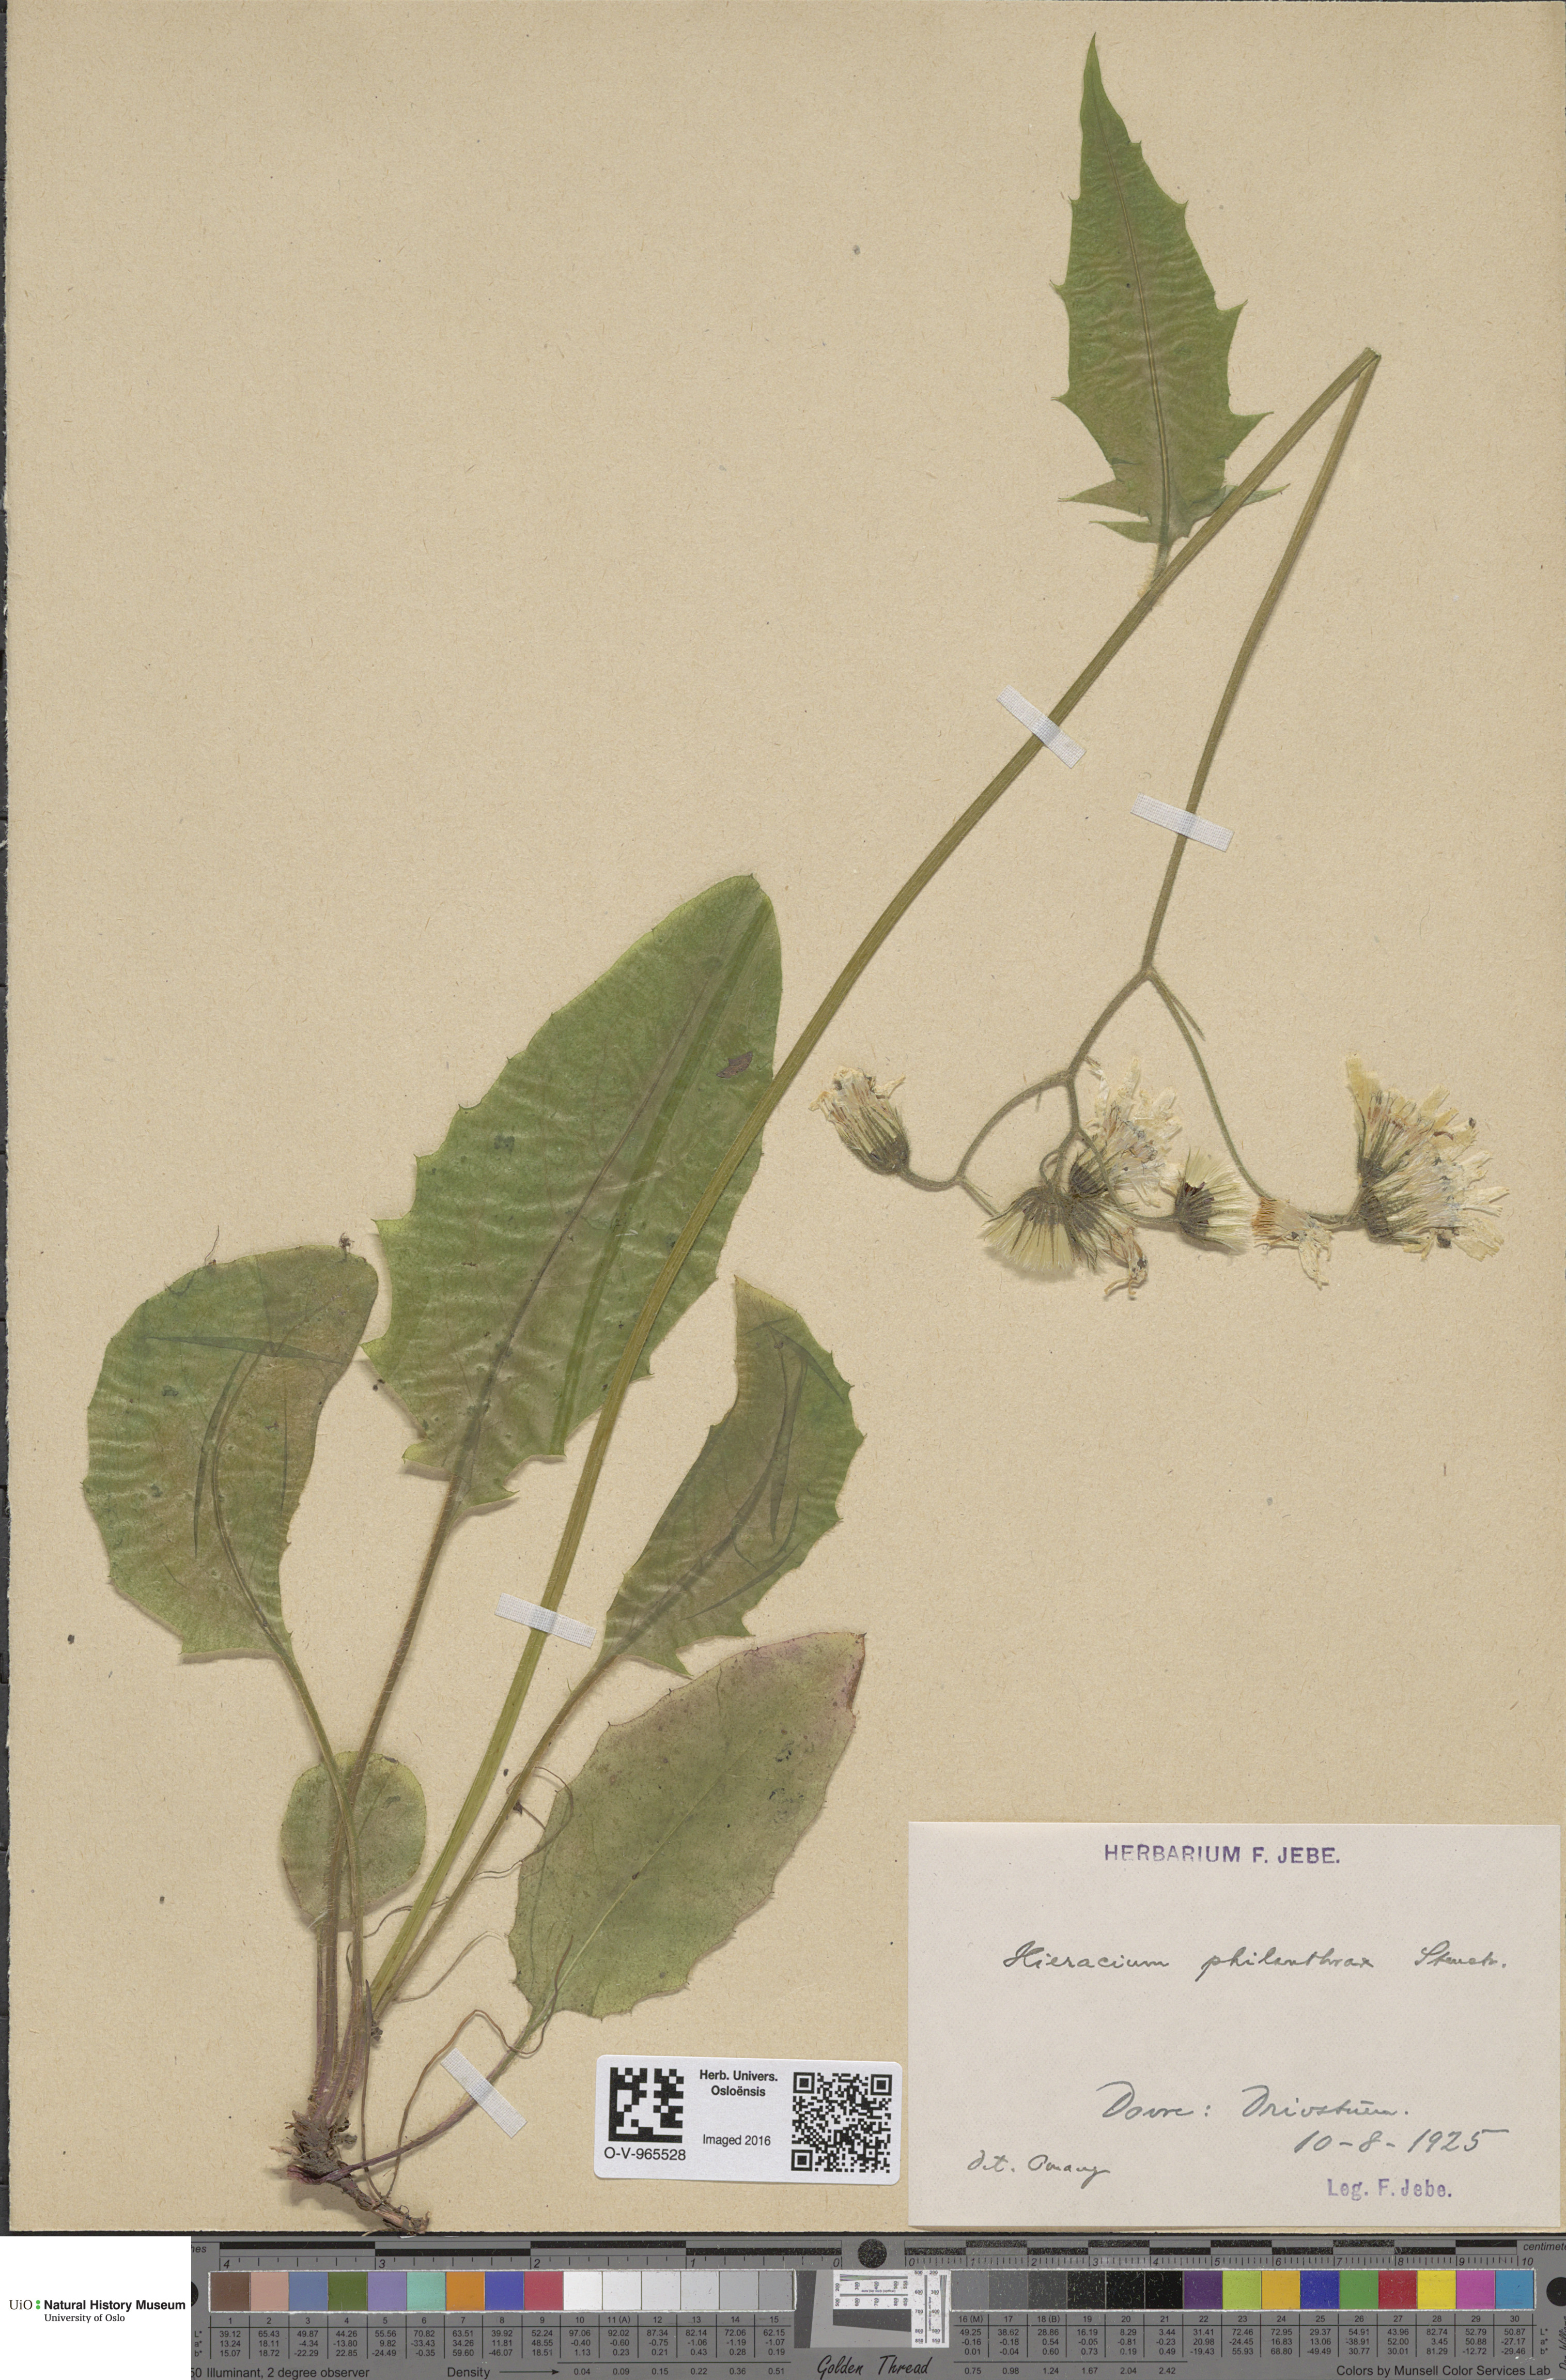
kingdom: Plantae
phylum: Tracheophyta
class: Magnoliopsida
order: Asterales
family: Asteraceae
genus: Hieracium
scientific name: Hieracium philanthrax
